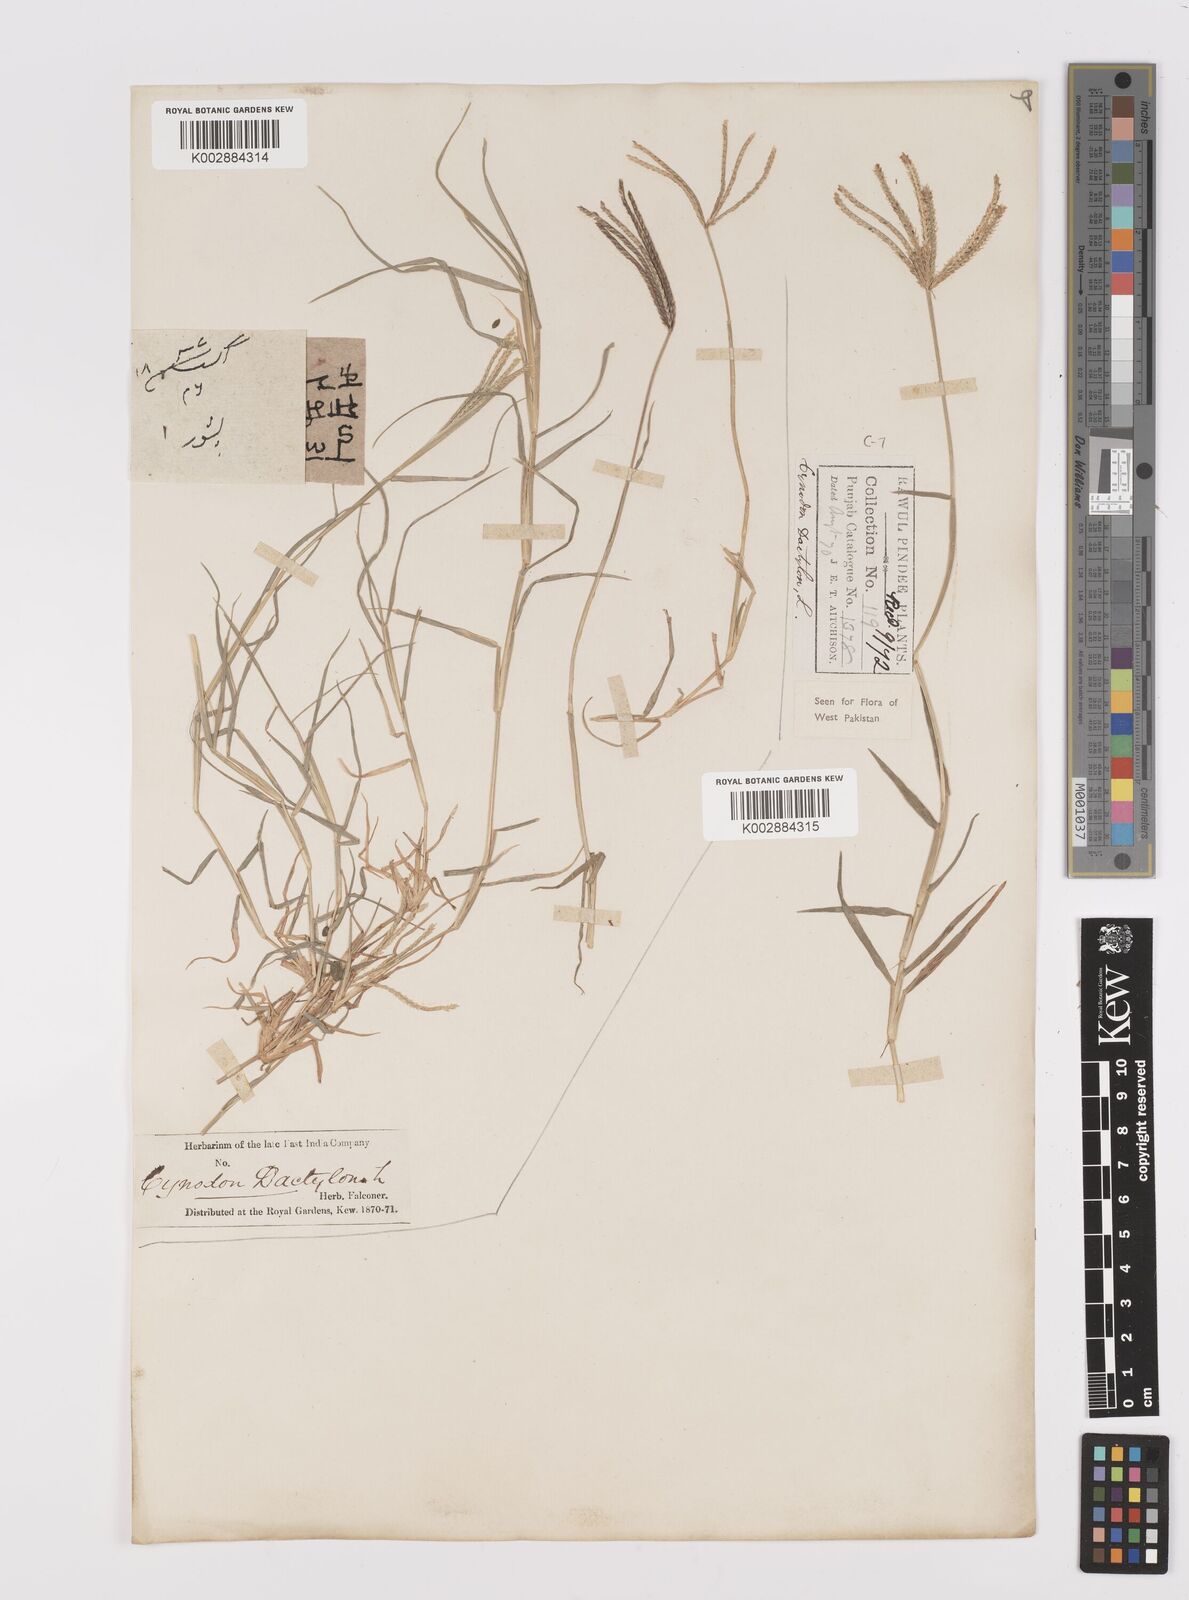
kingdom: Plantae
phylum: Tracheophyta
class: Liliopsida
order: Poales
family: Poaceae
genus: Cynodon
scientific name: Cynodon dactylon
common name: Bermuda grass
